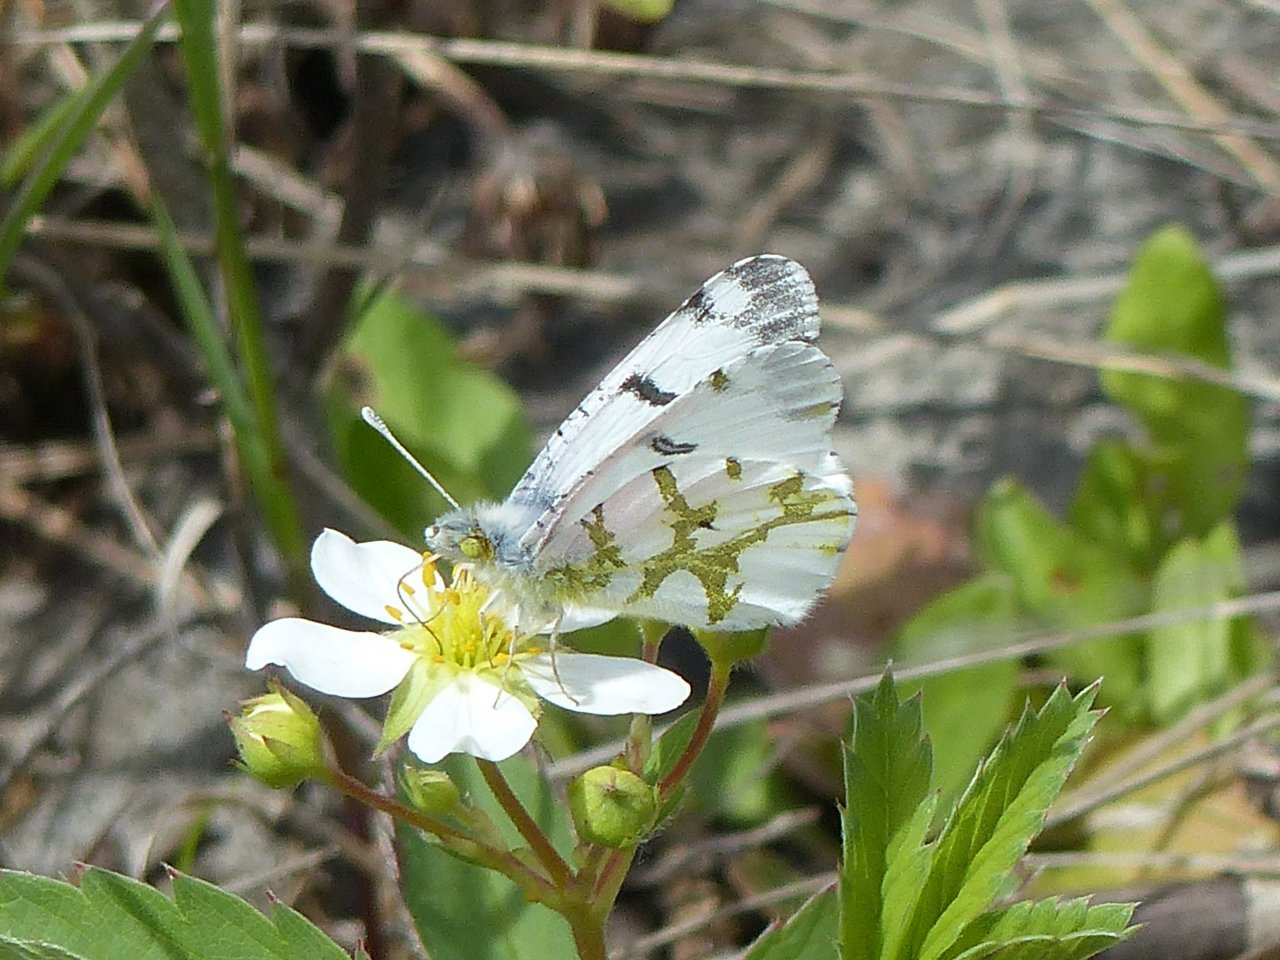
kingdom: Animalia
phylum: Arthropoda
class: Insecta
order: Lepidoptera
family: Pieridae
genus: Euchloe
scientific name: Euchloe olympia
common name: Olympia Marble
